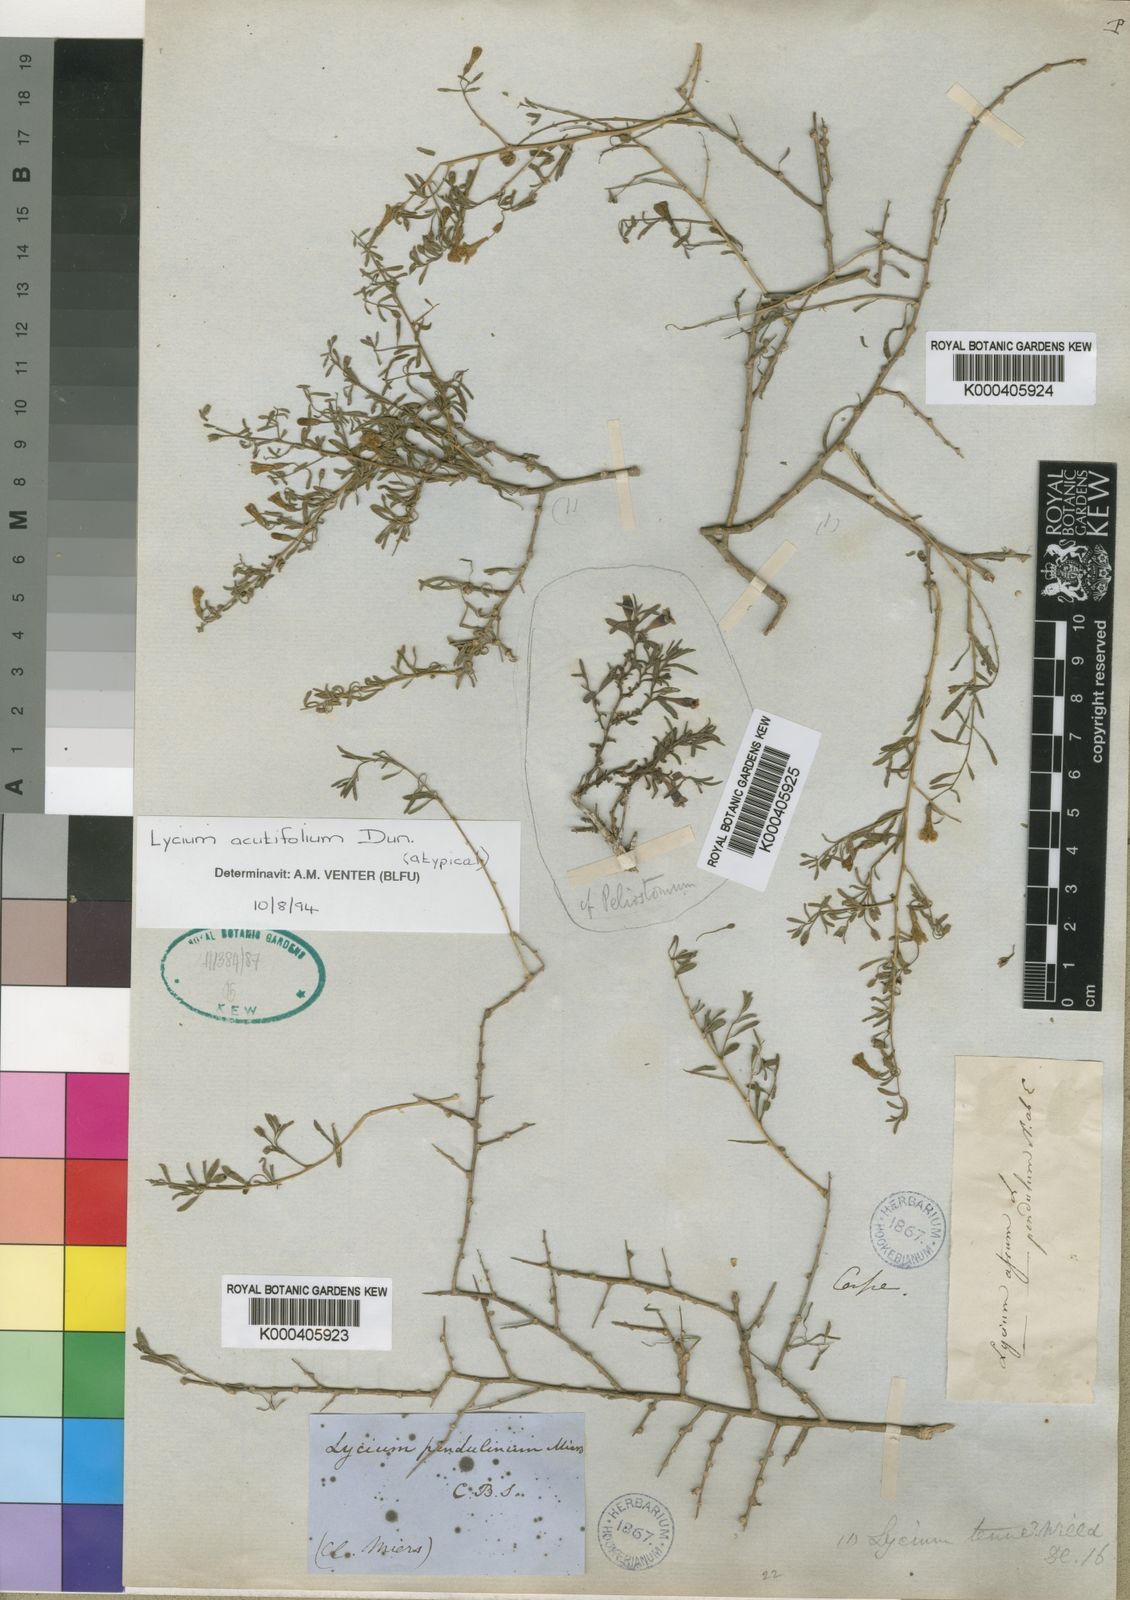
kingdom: Plantae
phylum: Tracheophyta
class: Magnoliopsida
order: Solanales
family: Solanaceae
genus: Lycium
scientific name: Lycium acutifolium
